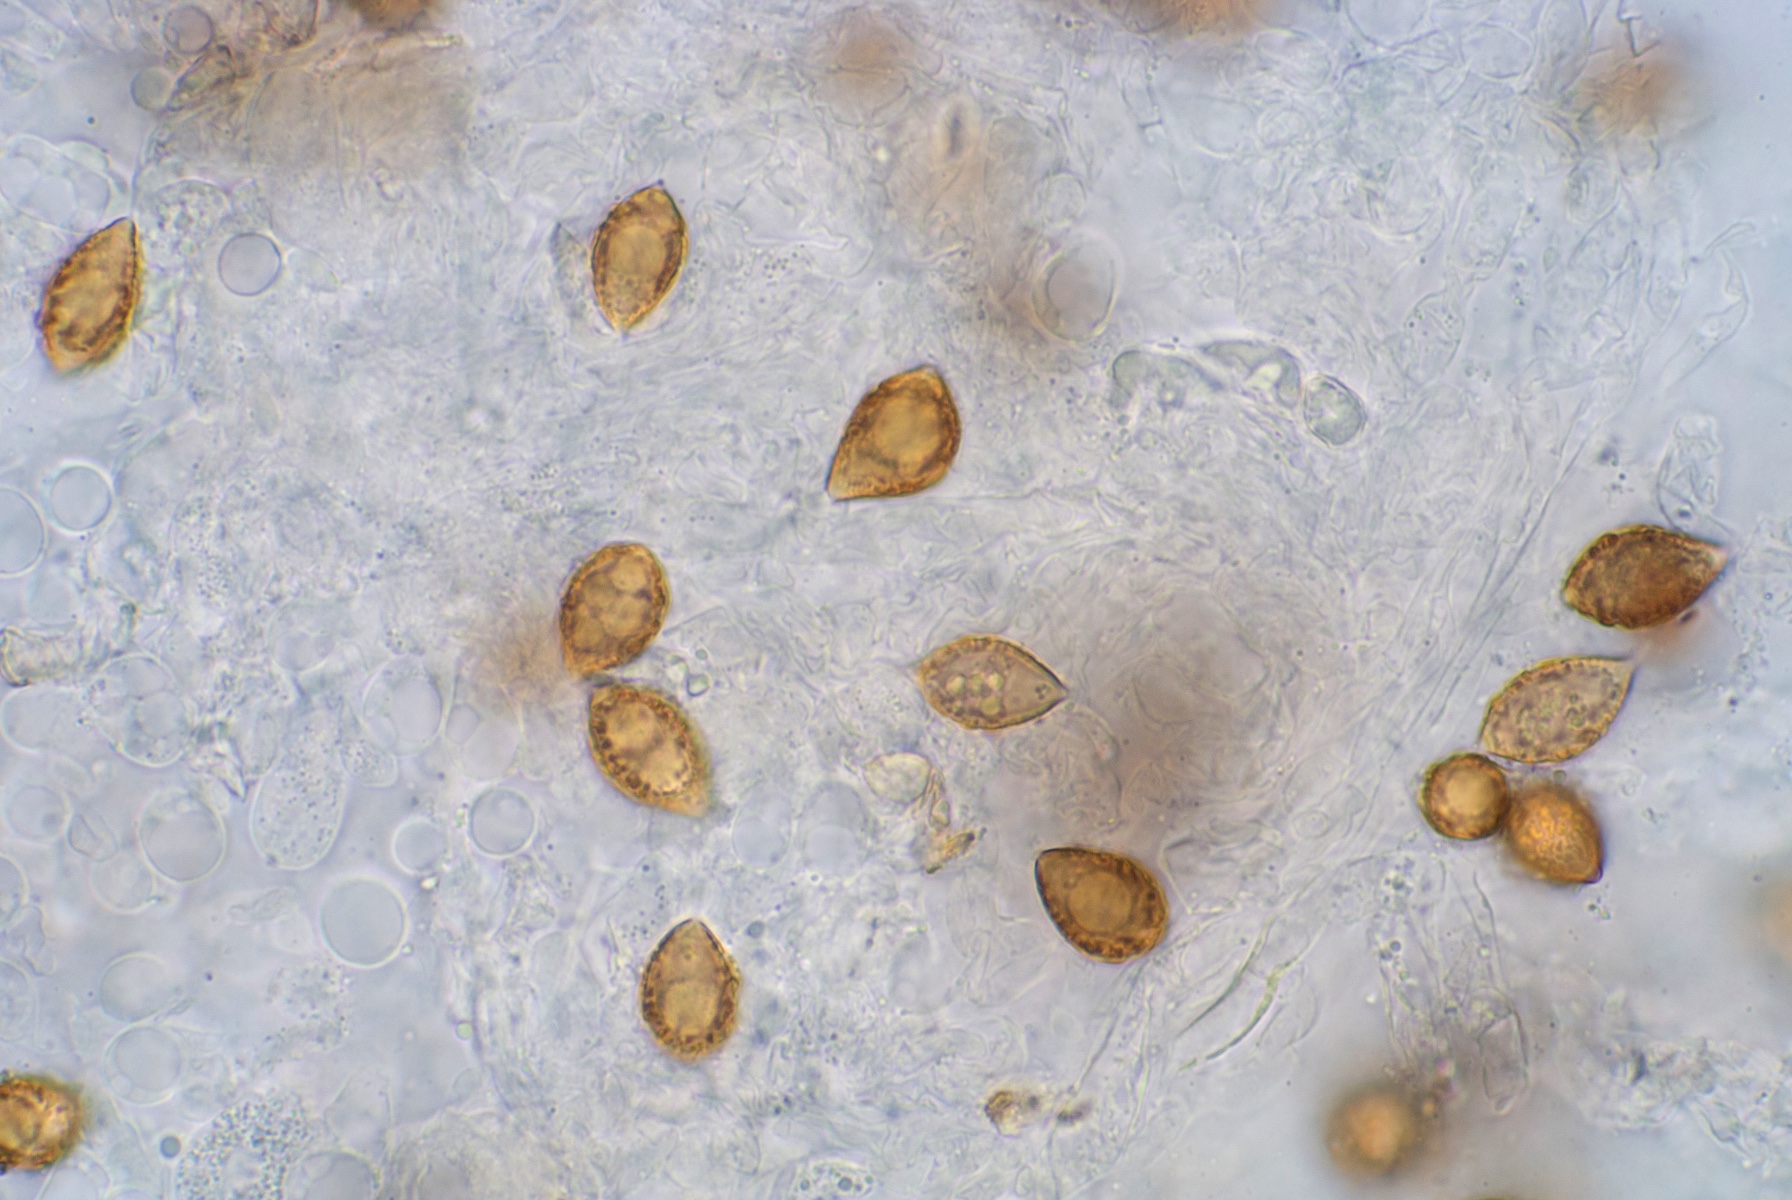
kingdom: Fungi
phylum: Basidiomycota
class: Agaricomycetes
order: Agaricales
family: Hymenogastraceae
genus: Hymenogaster
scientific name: Hymenogaster
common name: knoldtrøffel
